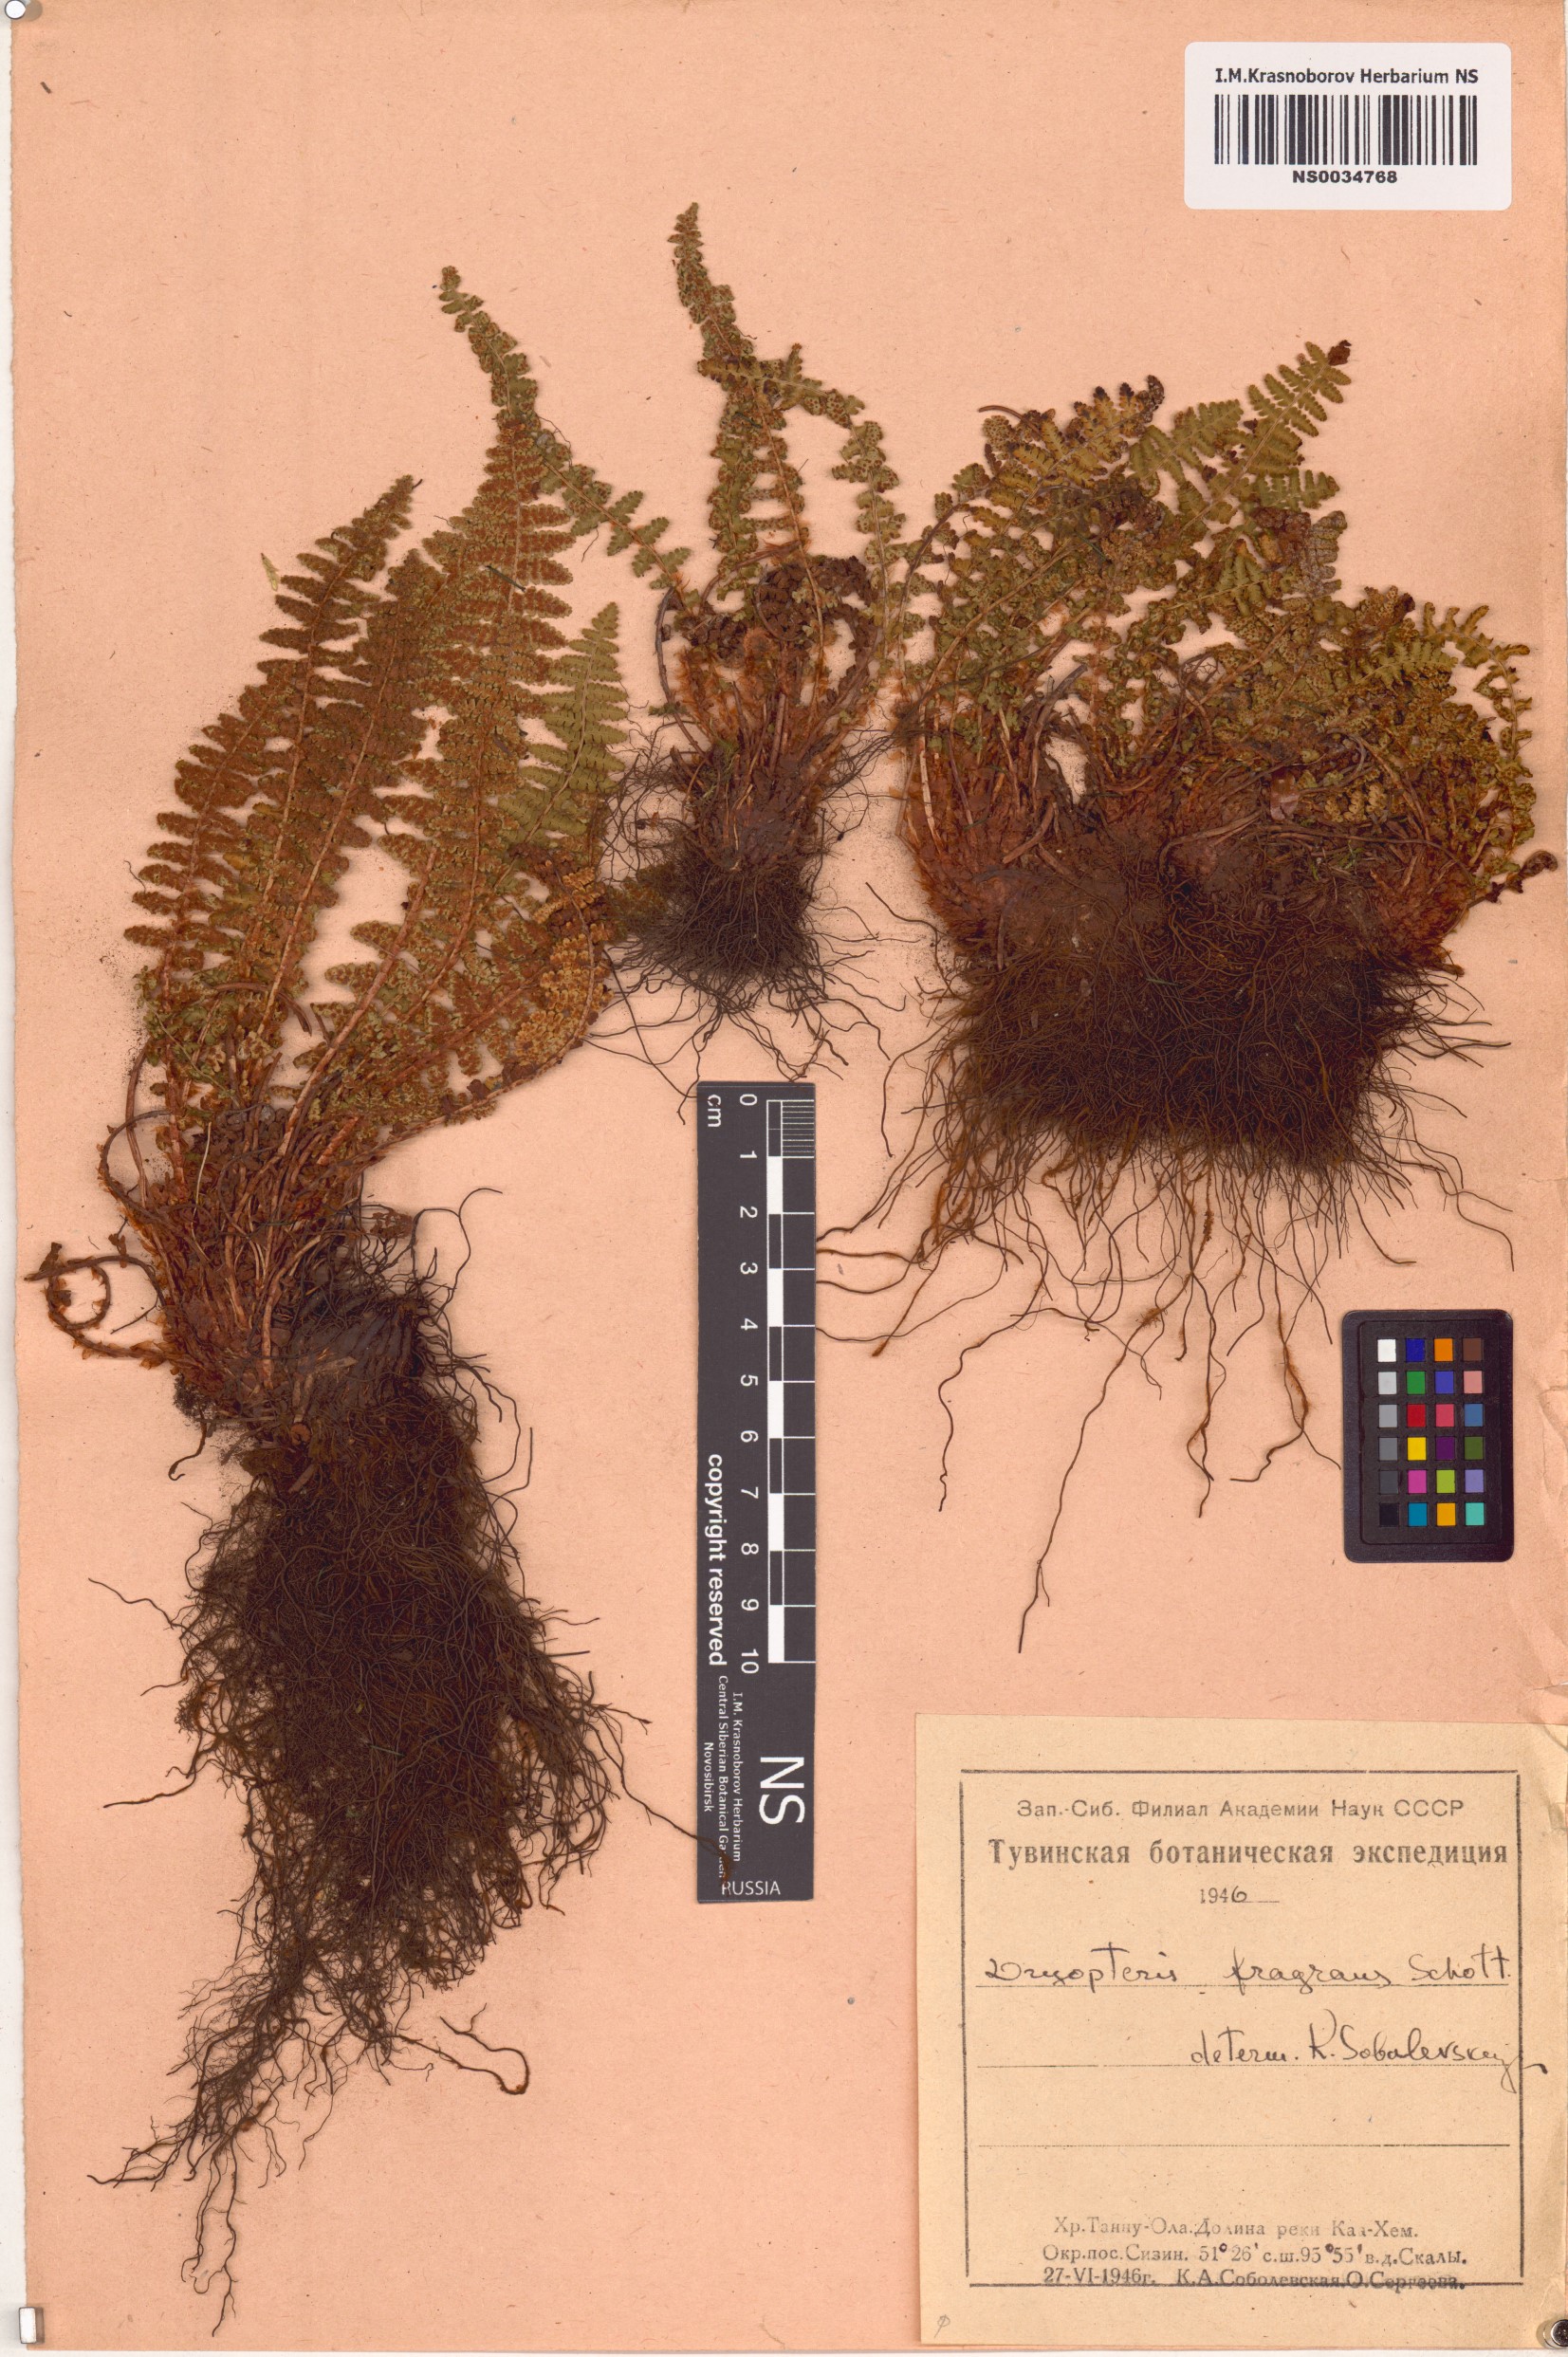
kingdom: Plantae
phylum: Tracheophyta
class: Polypodiopsida
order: Polypodiales
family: Dryopteridaceae
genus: Dryopteris
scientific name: Dryopteris fragrans
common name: Fragrant wood fern
